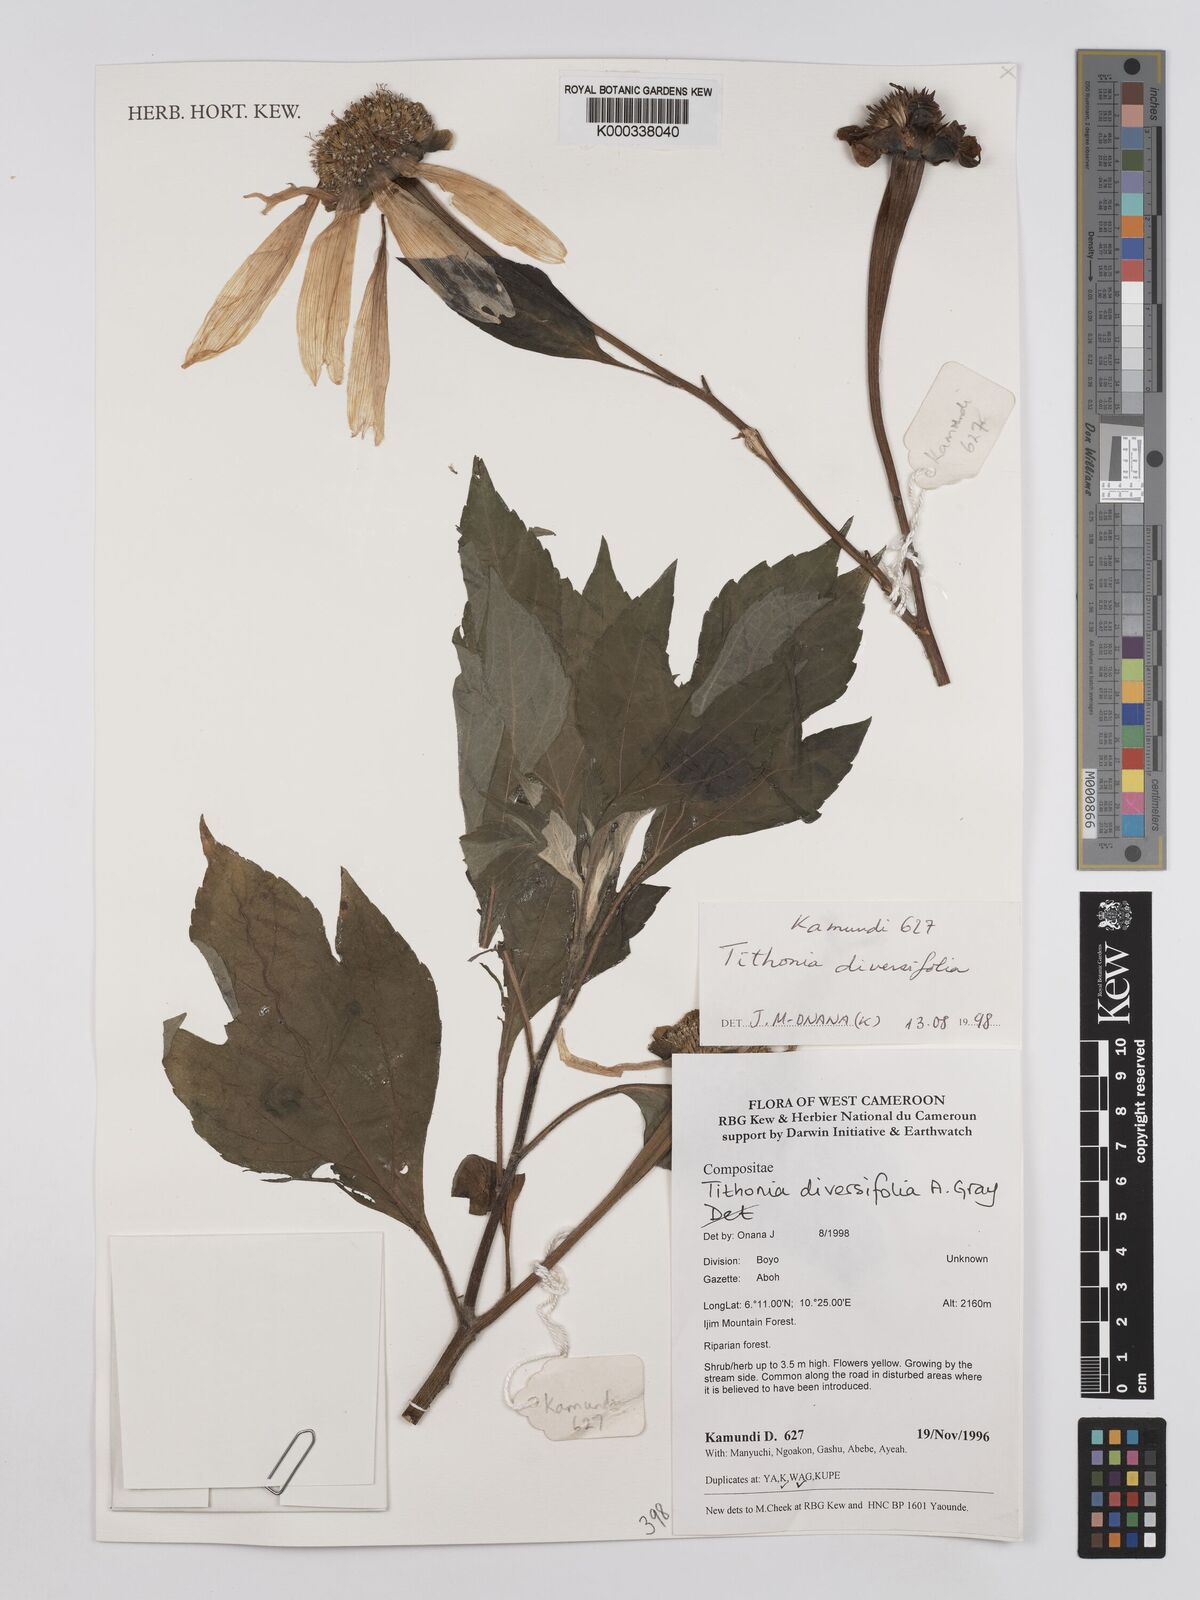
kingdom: Plantae
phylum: Tracheophyta
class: Magnoliopsida
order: Asterales
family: Asteraceae
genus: Tithonia
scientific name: Tithonia diversifolia
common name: Tree marigold
